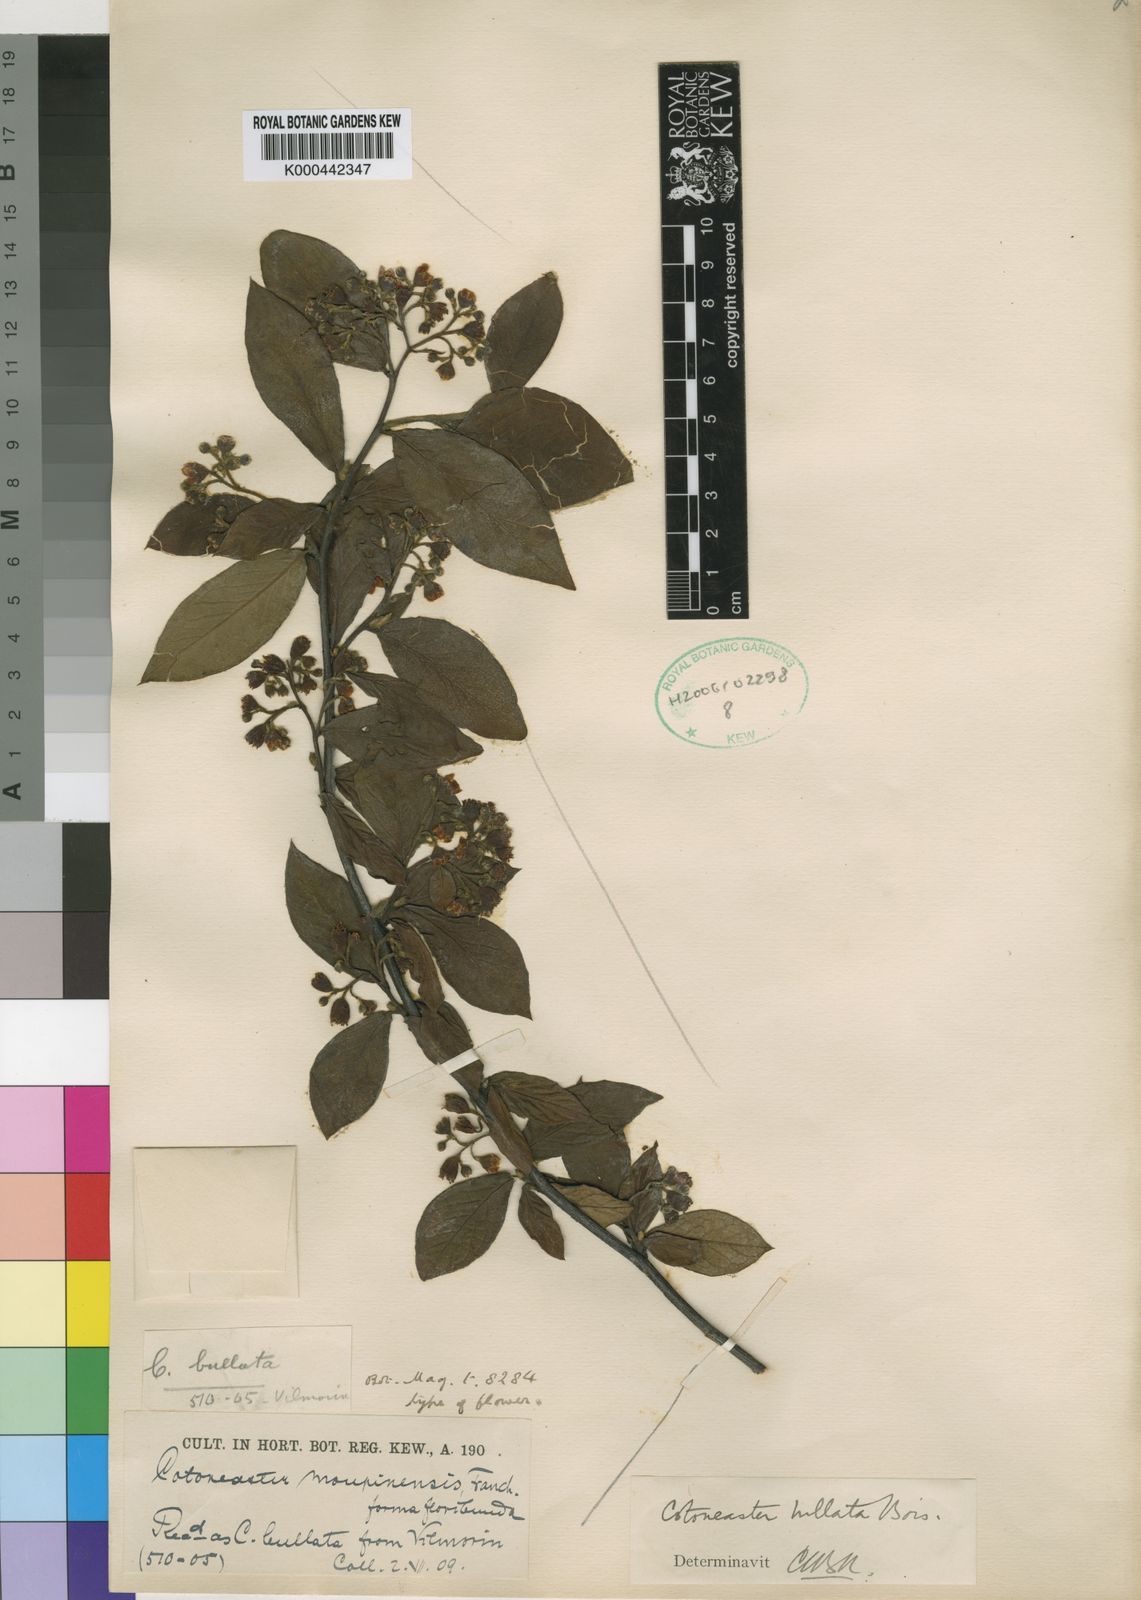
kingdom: Plantae
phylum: Tracheophyta
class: Magnoliopsida
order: Rosales
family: Rosaceae
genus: Cotoneaster
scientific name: Cotoneaster bullatus
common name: Hollyberry cotoneaster
